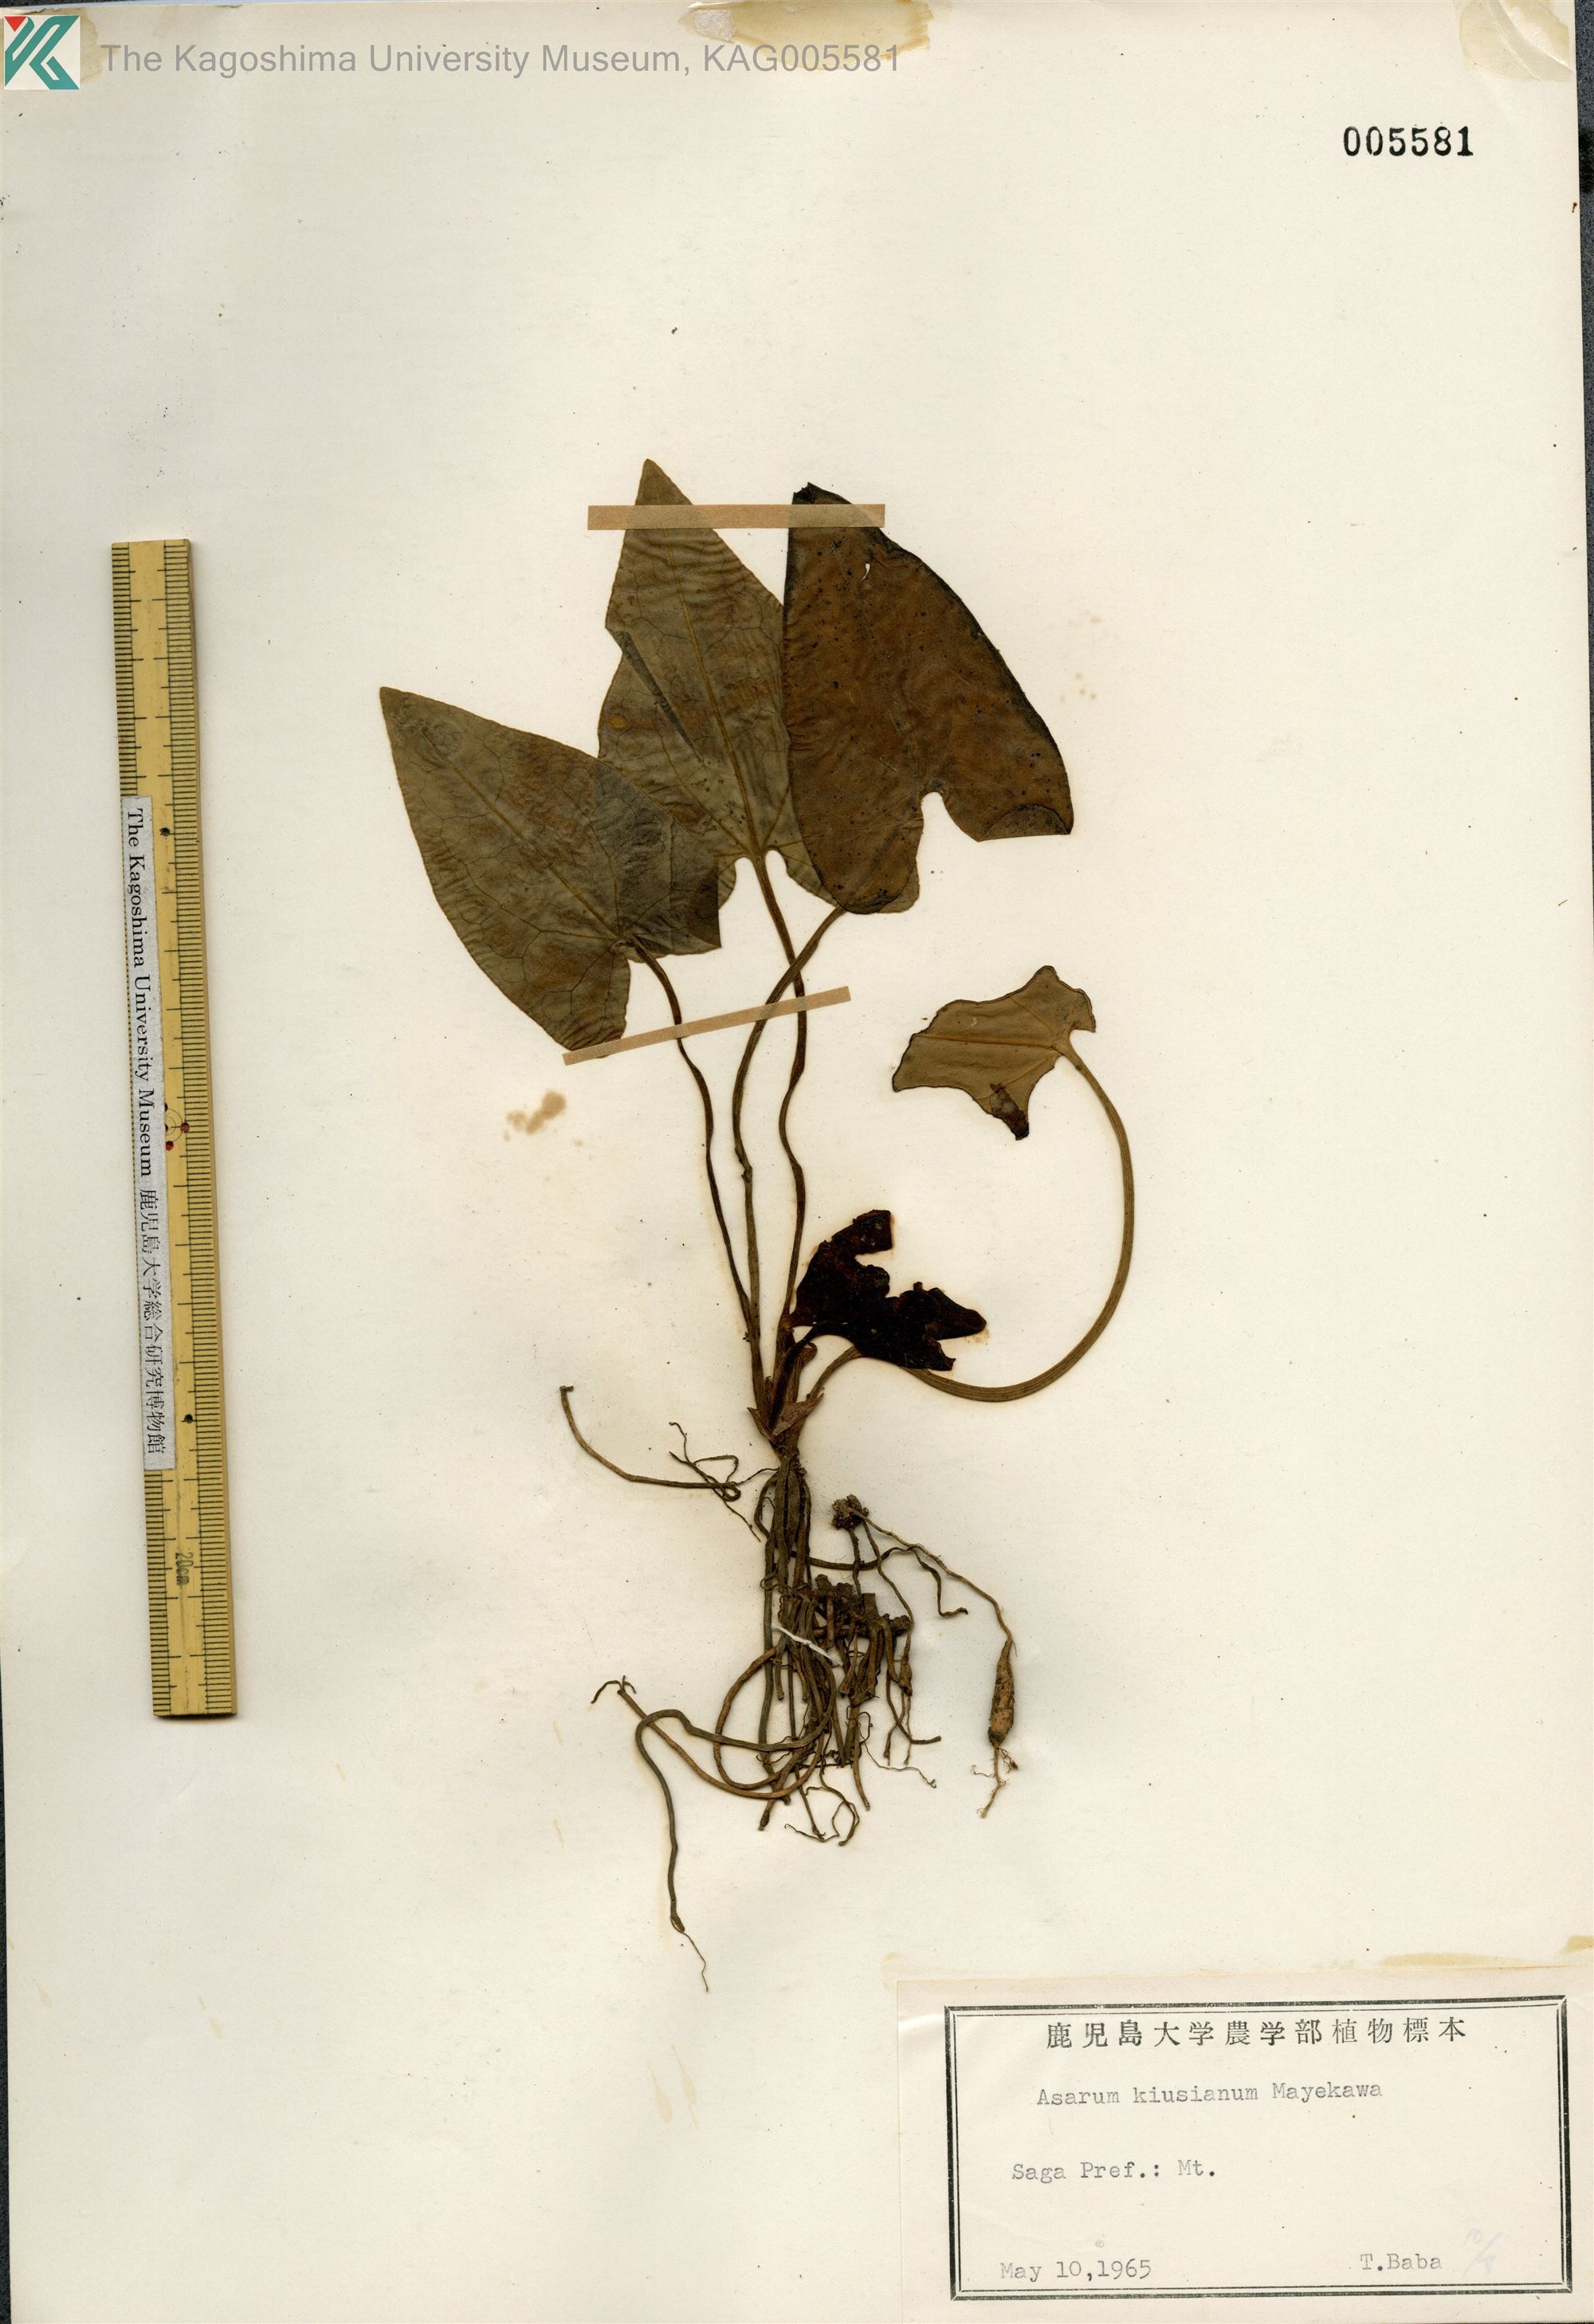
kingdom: Plantae
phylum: Tracheophyta
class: Magnoliopsida
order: Piperales
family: Aristolochiaceae
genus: Asarum
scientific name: Asarum kiusianum
